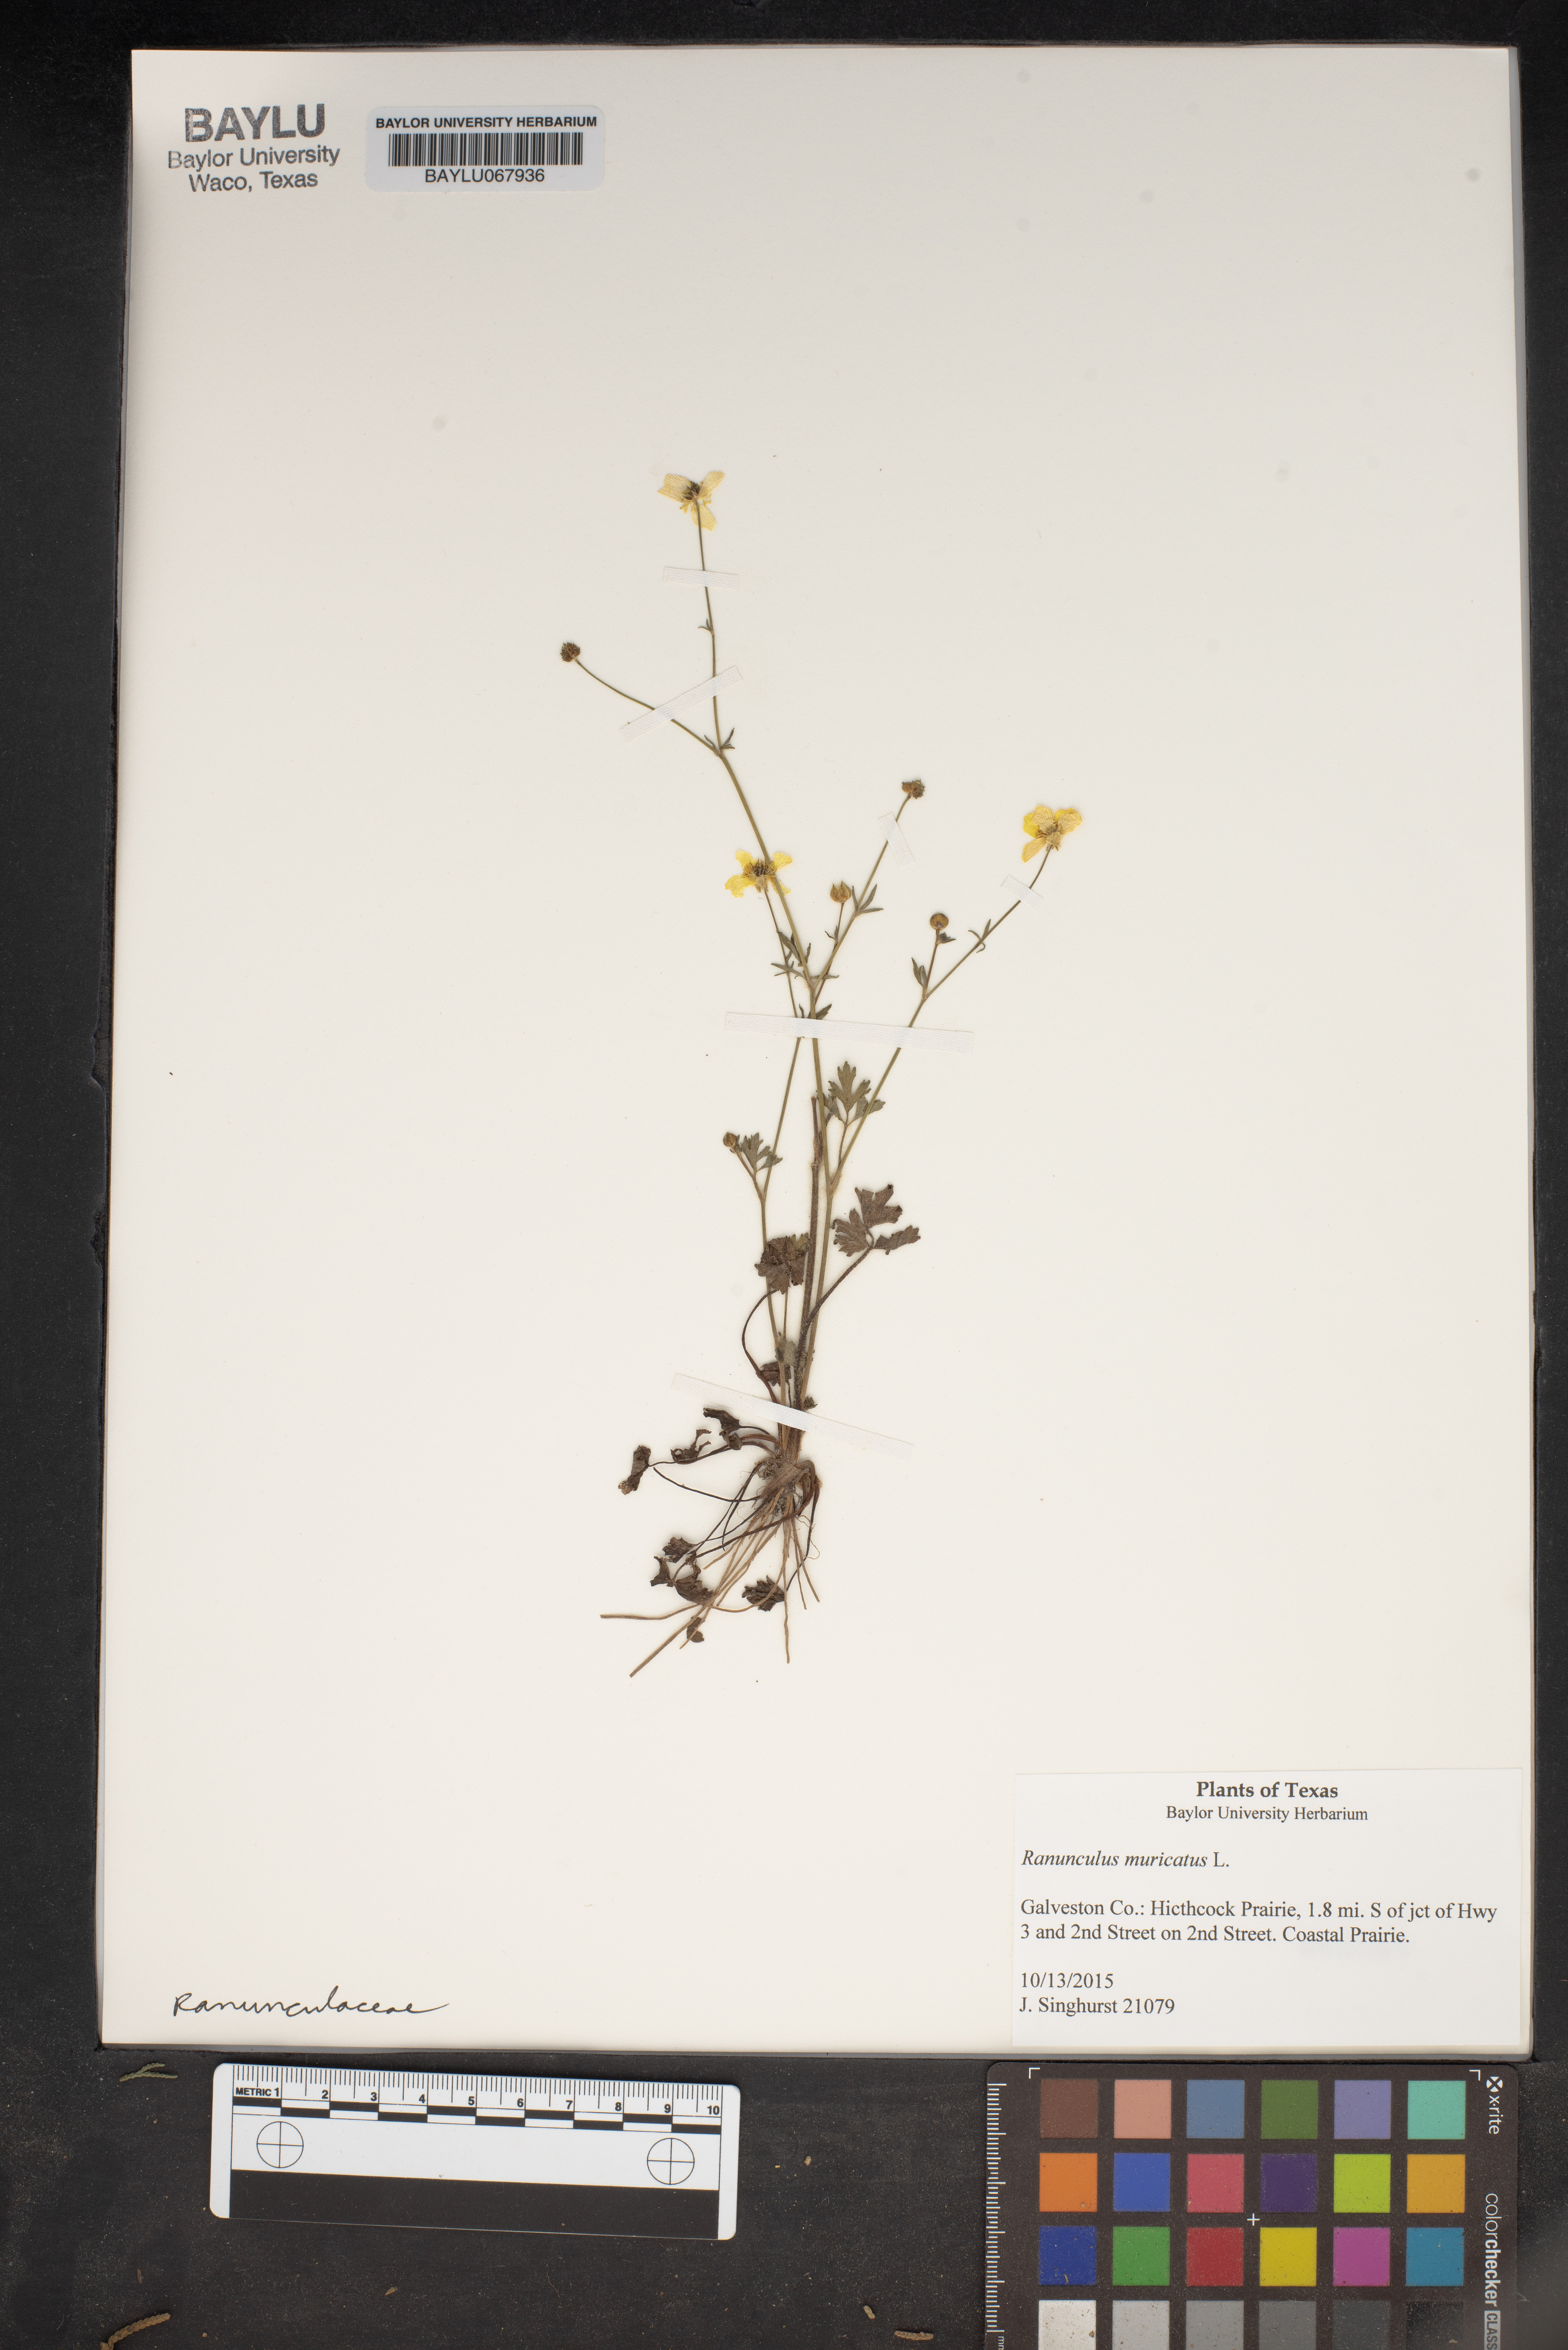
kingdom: Plantae
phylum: Tracheophyta
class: Magnoliopsida
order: Ranunculales
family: Ranunculaceae
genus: Ranunculus
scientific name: Ranunculus muricatus
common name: Rough-fruited buttercup
